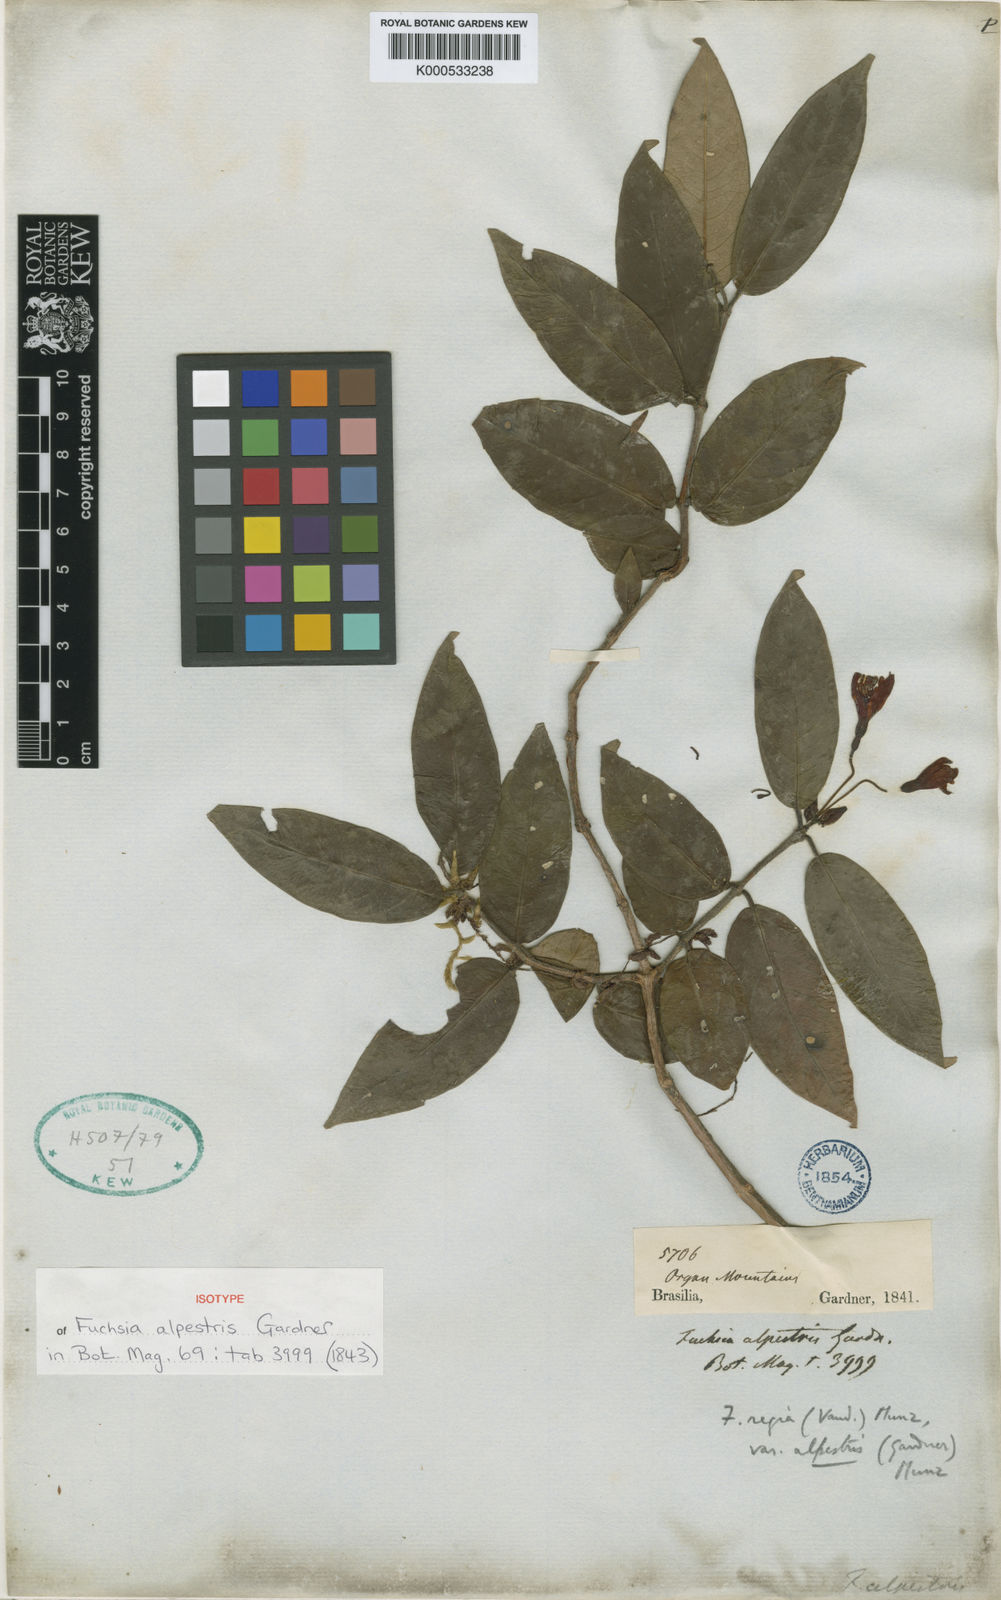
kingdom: Plantae
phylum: Tracheophyta
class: Magnoliopsida
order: Myrtales
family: Onagraceae
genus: Fuchsia
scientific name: Fuchsia alpestris
